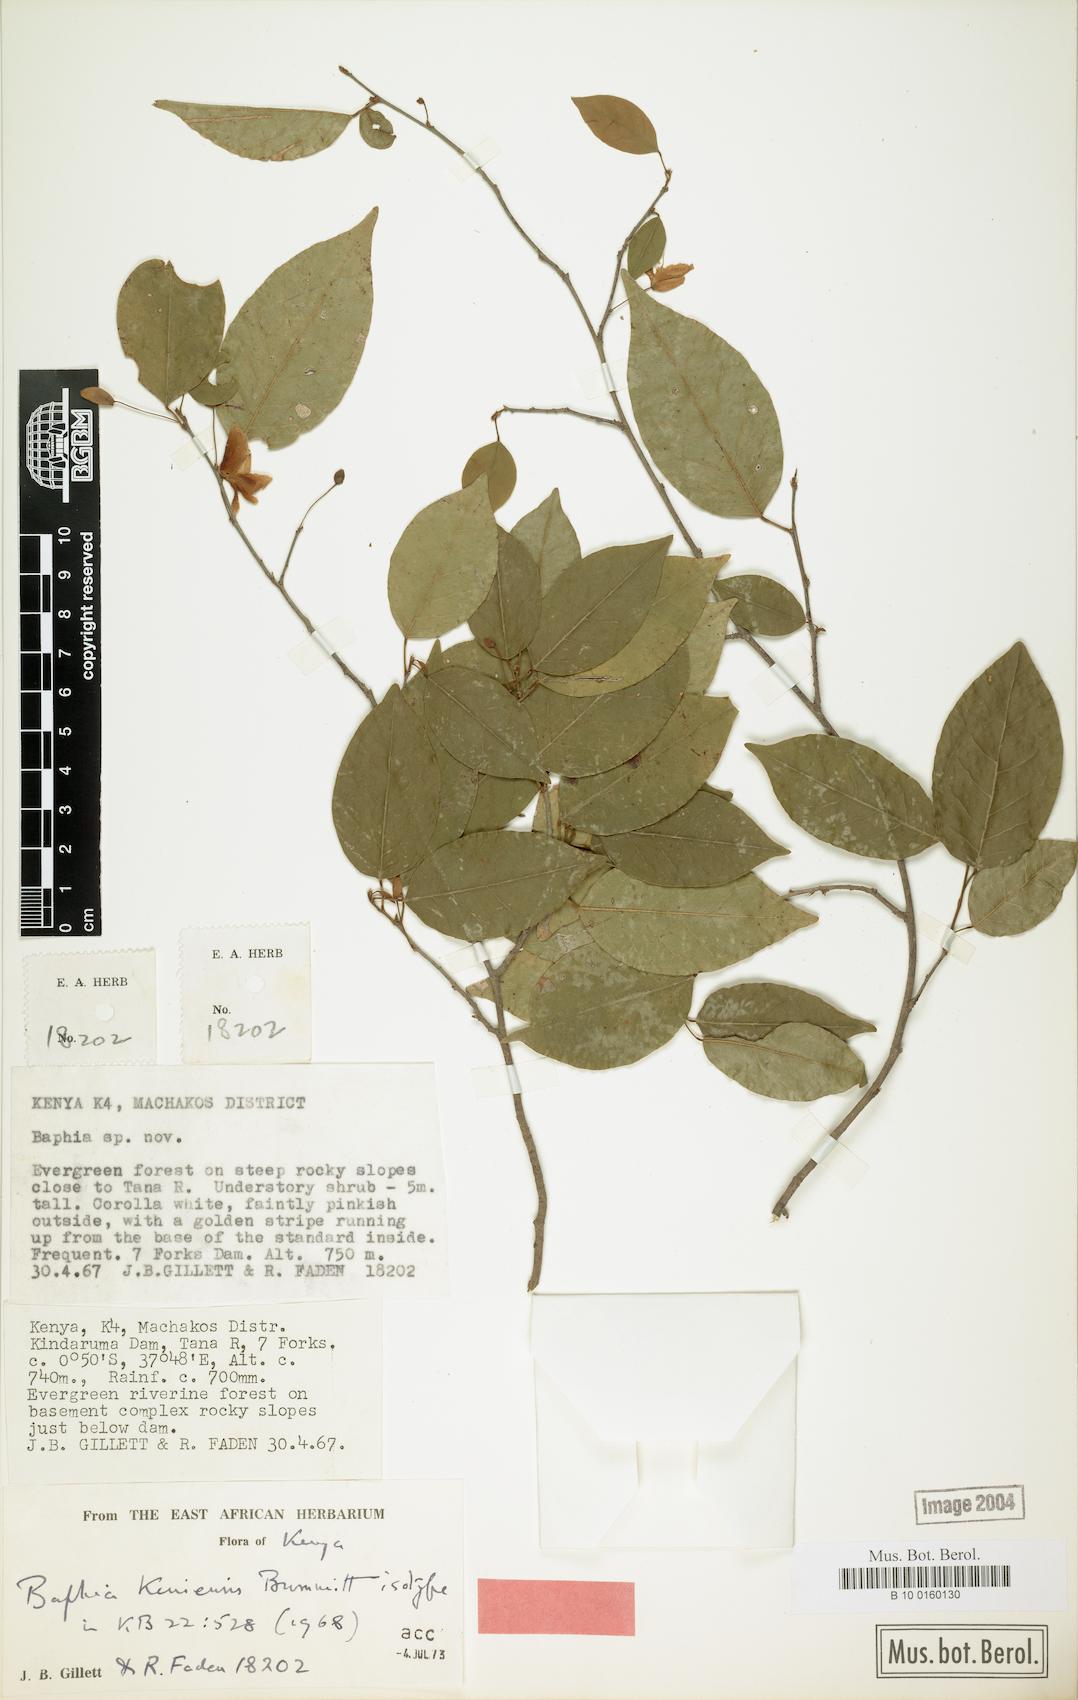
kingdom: Plantae
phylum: Tracheophyta
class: Magnoliopsida
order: Fabales
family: Fabaceae
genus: Baphia
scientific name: Baphia longipedicellata
